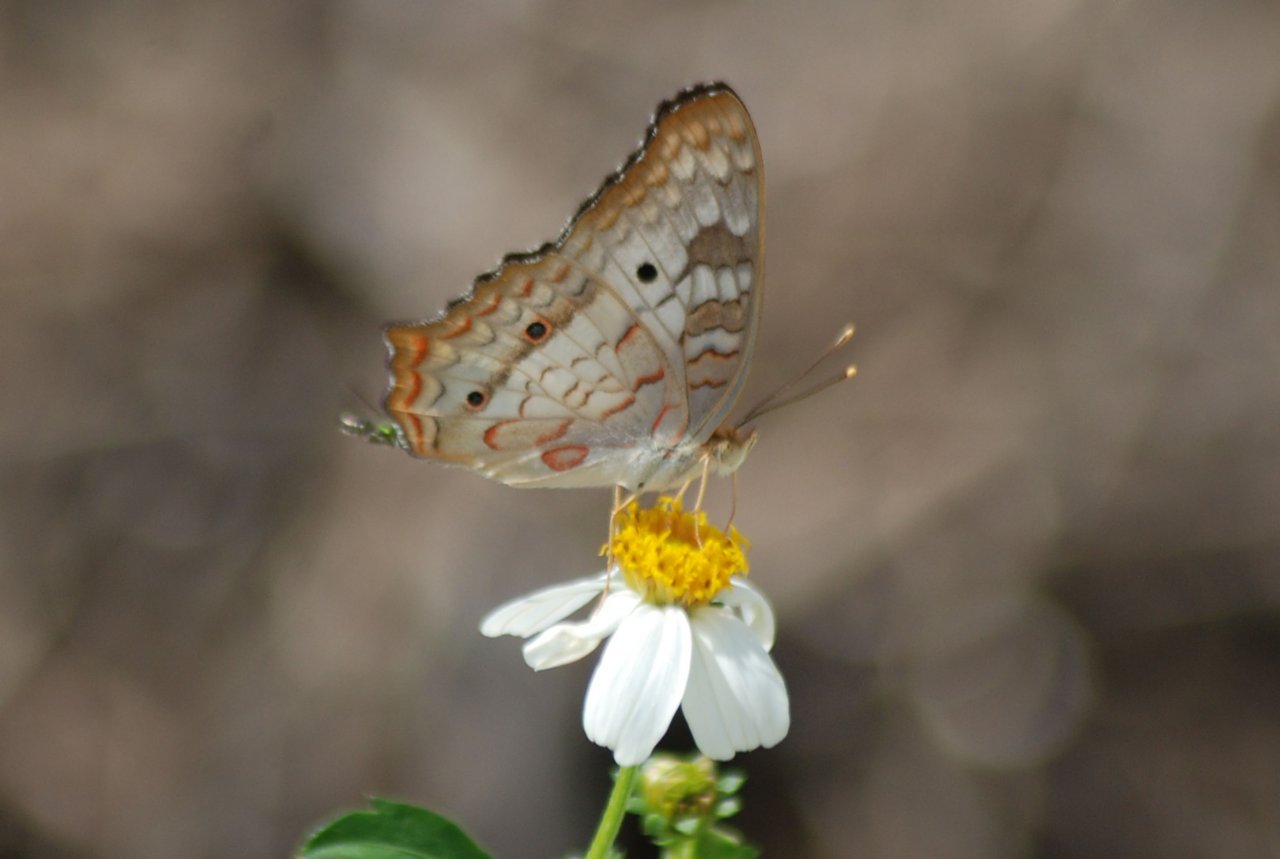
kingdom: Animalia
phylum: Arthropoda
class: Insecta
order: Lepidoptera
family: Nymphalidae
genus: Anartia
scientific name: Anartia jatrophae
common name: White Peacock
